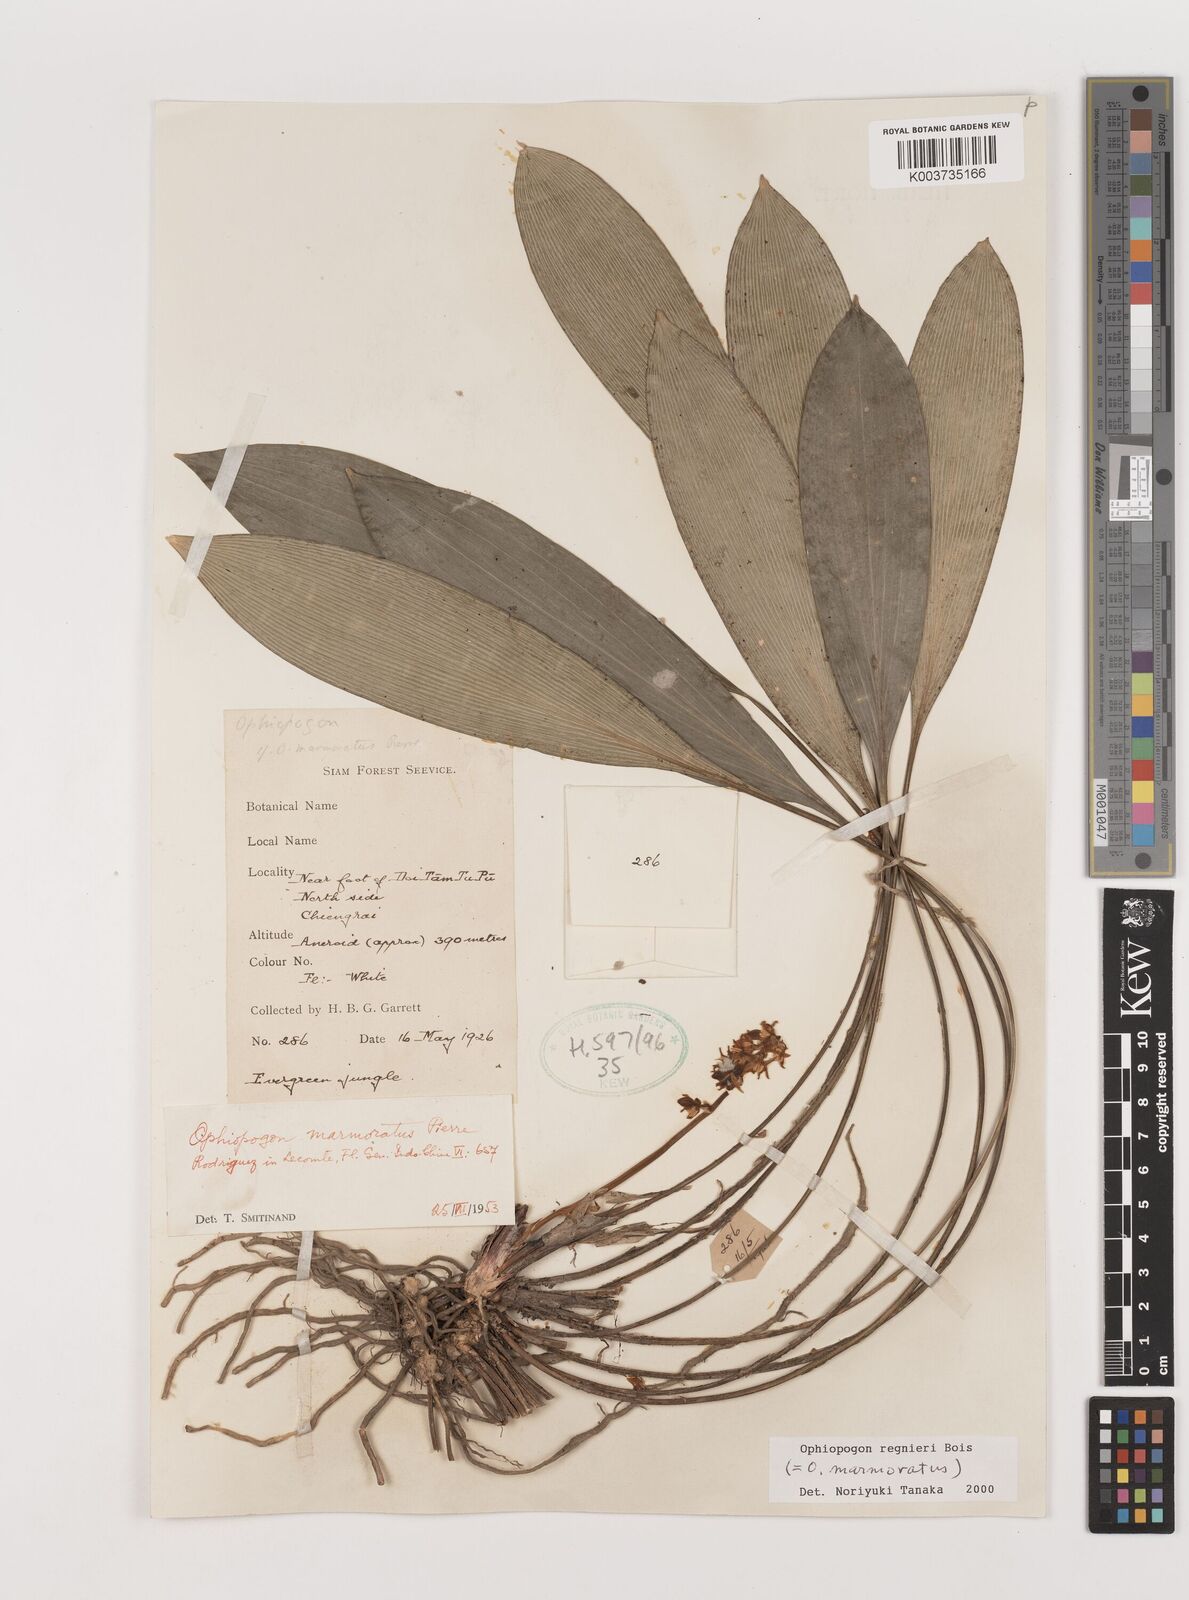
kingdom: Plantae
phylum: Tracheophyta
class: Liliopsida
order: Asparagales
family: Asparagaceae
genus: Ophiopogon
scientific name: Ophiopogon regnieri
